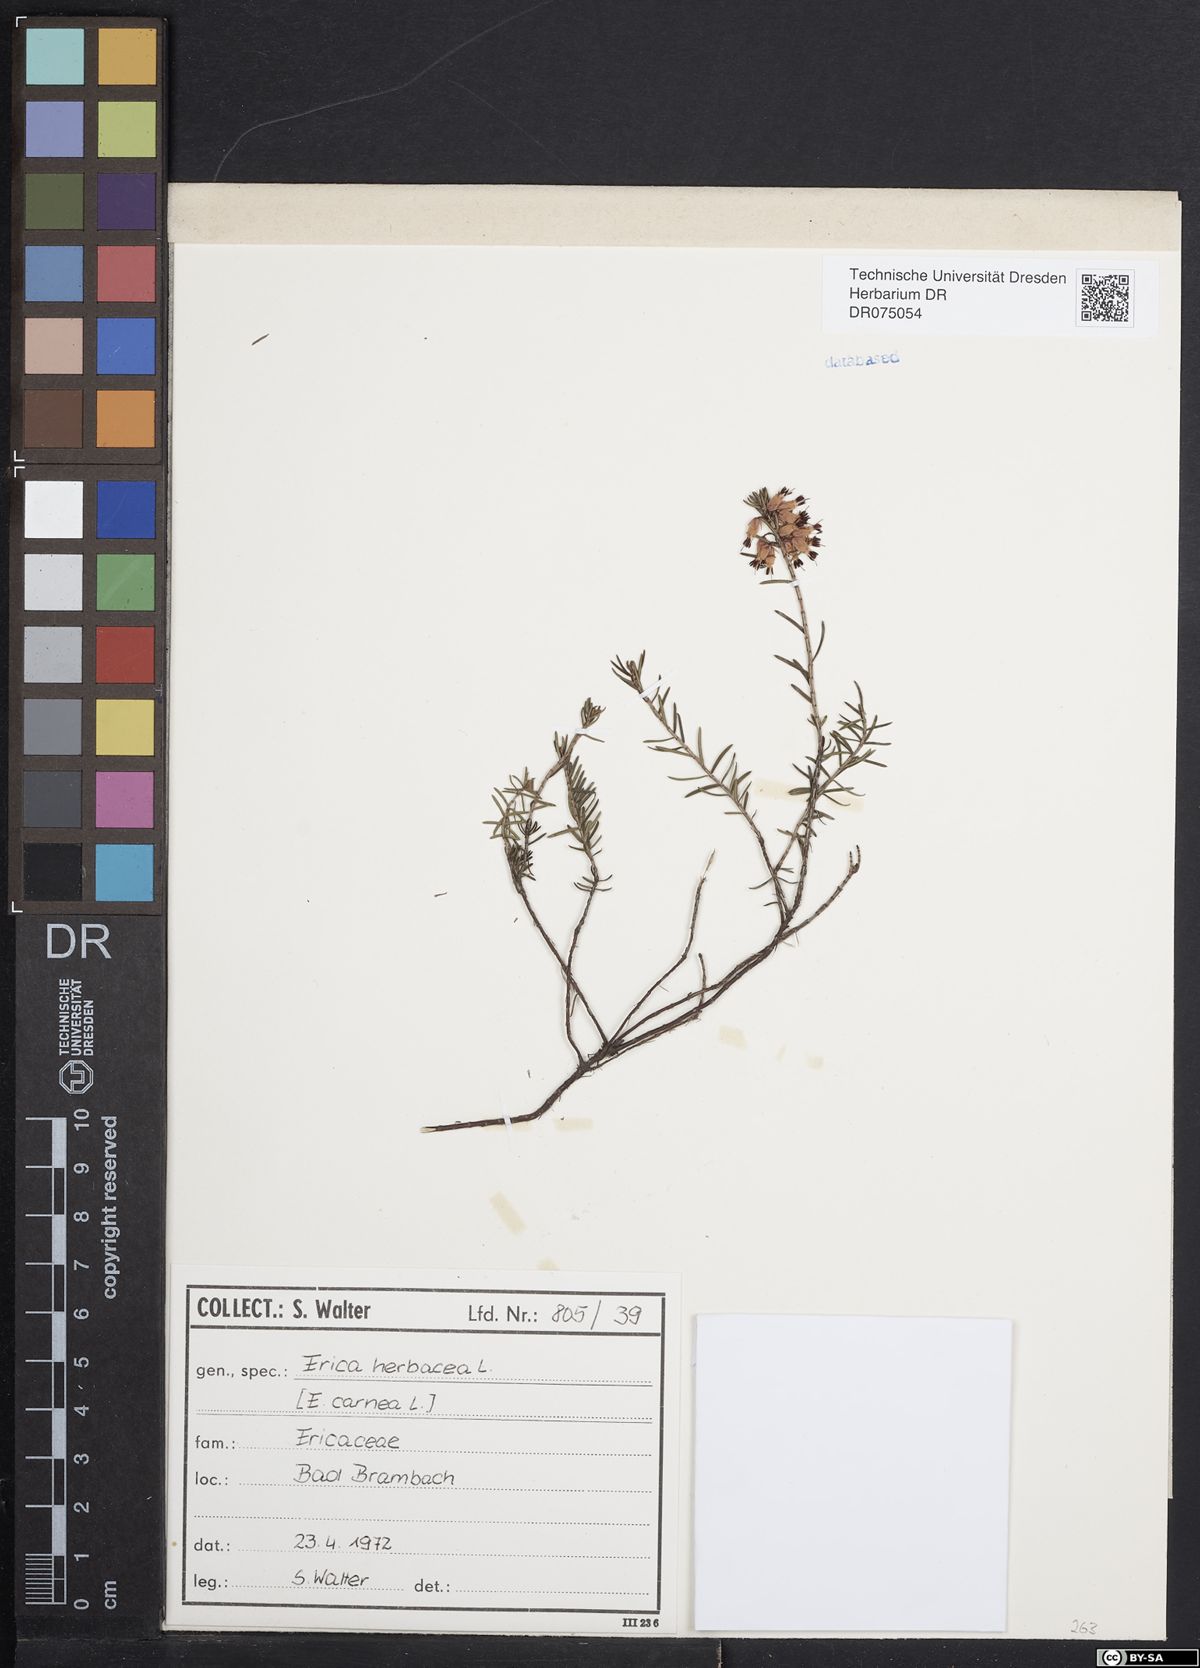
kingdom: Plantae
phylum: Tracheophyta
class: Magnoliopsida
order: Ericales
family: Ericaceae
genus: Erica
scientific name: Erica carnea
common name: Winter heath
